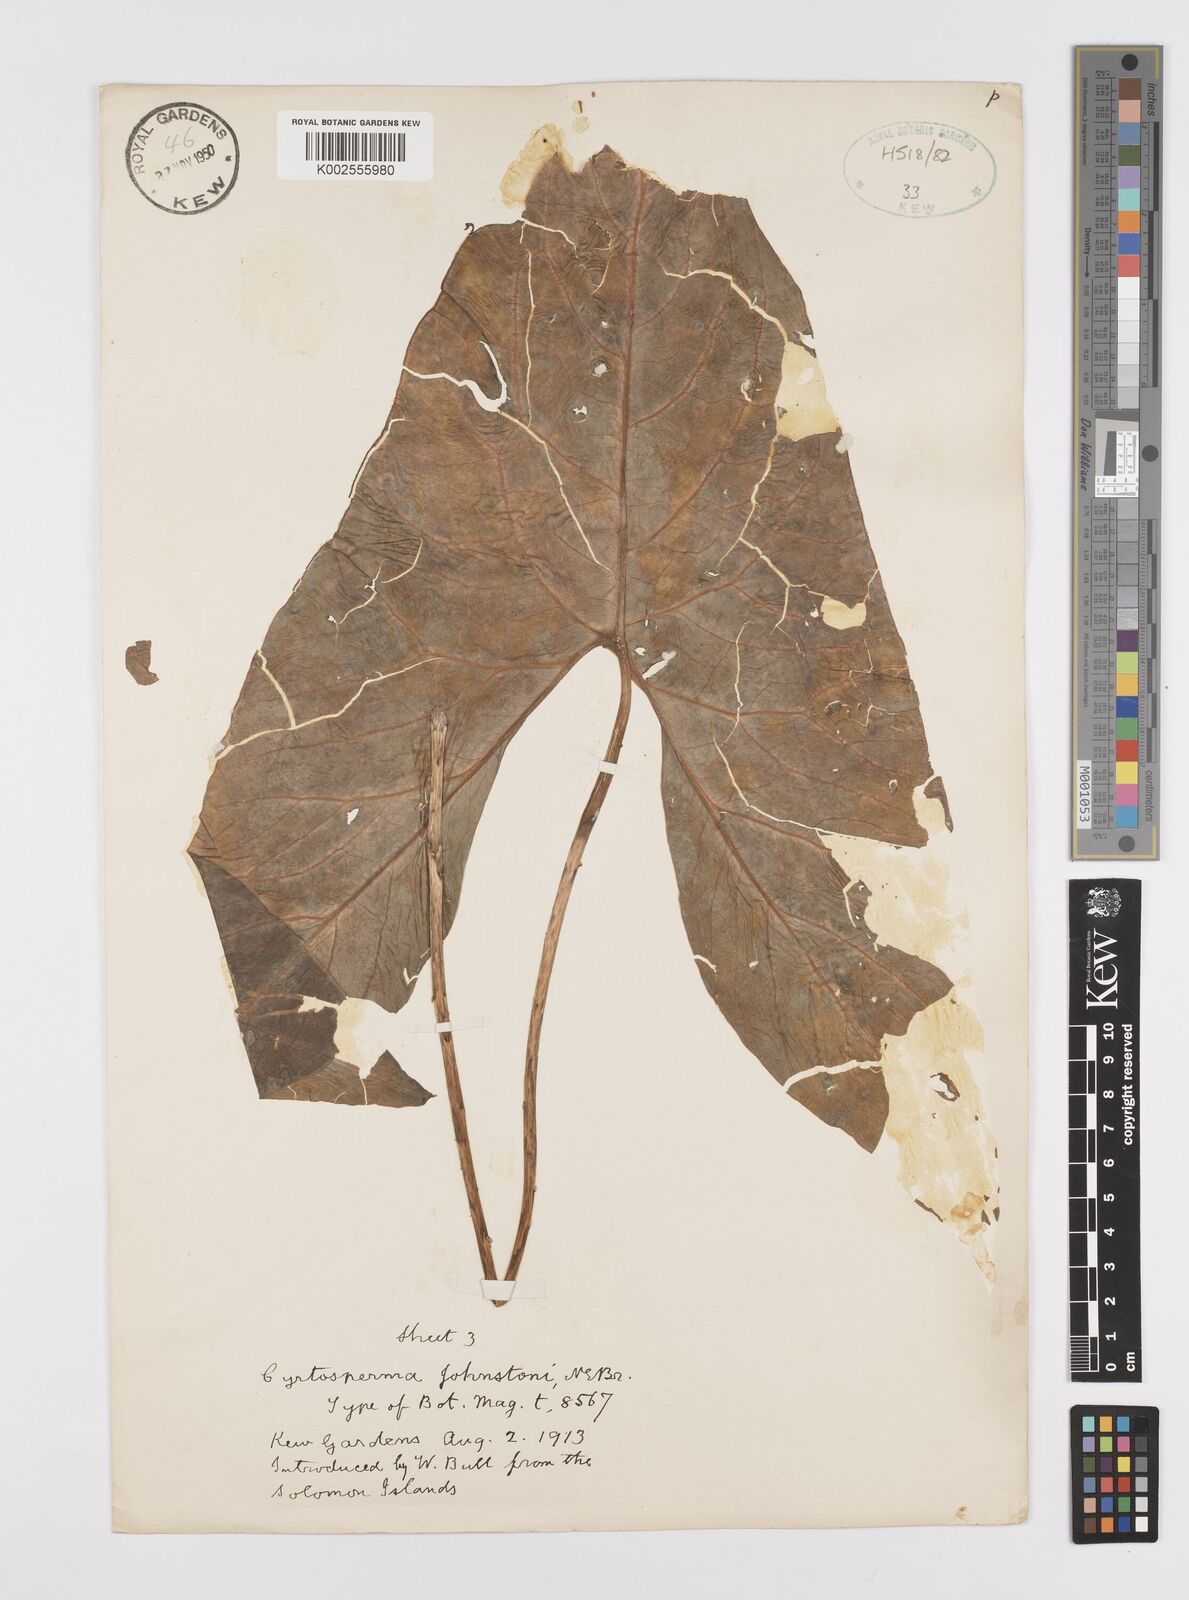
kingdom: Plantae
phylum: Tracheophyta
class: Liliopsida
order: Alismatales
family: Araceae
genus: Cyrtosperma
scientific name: Cyrtosperma johnstonii
